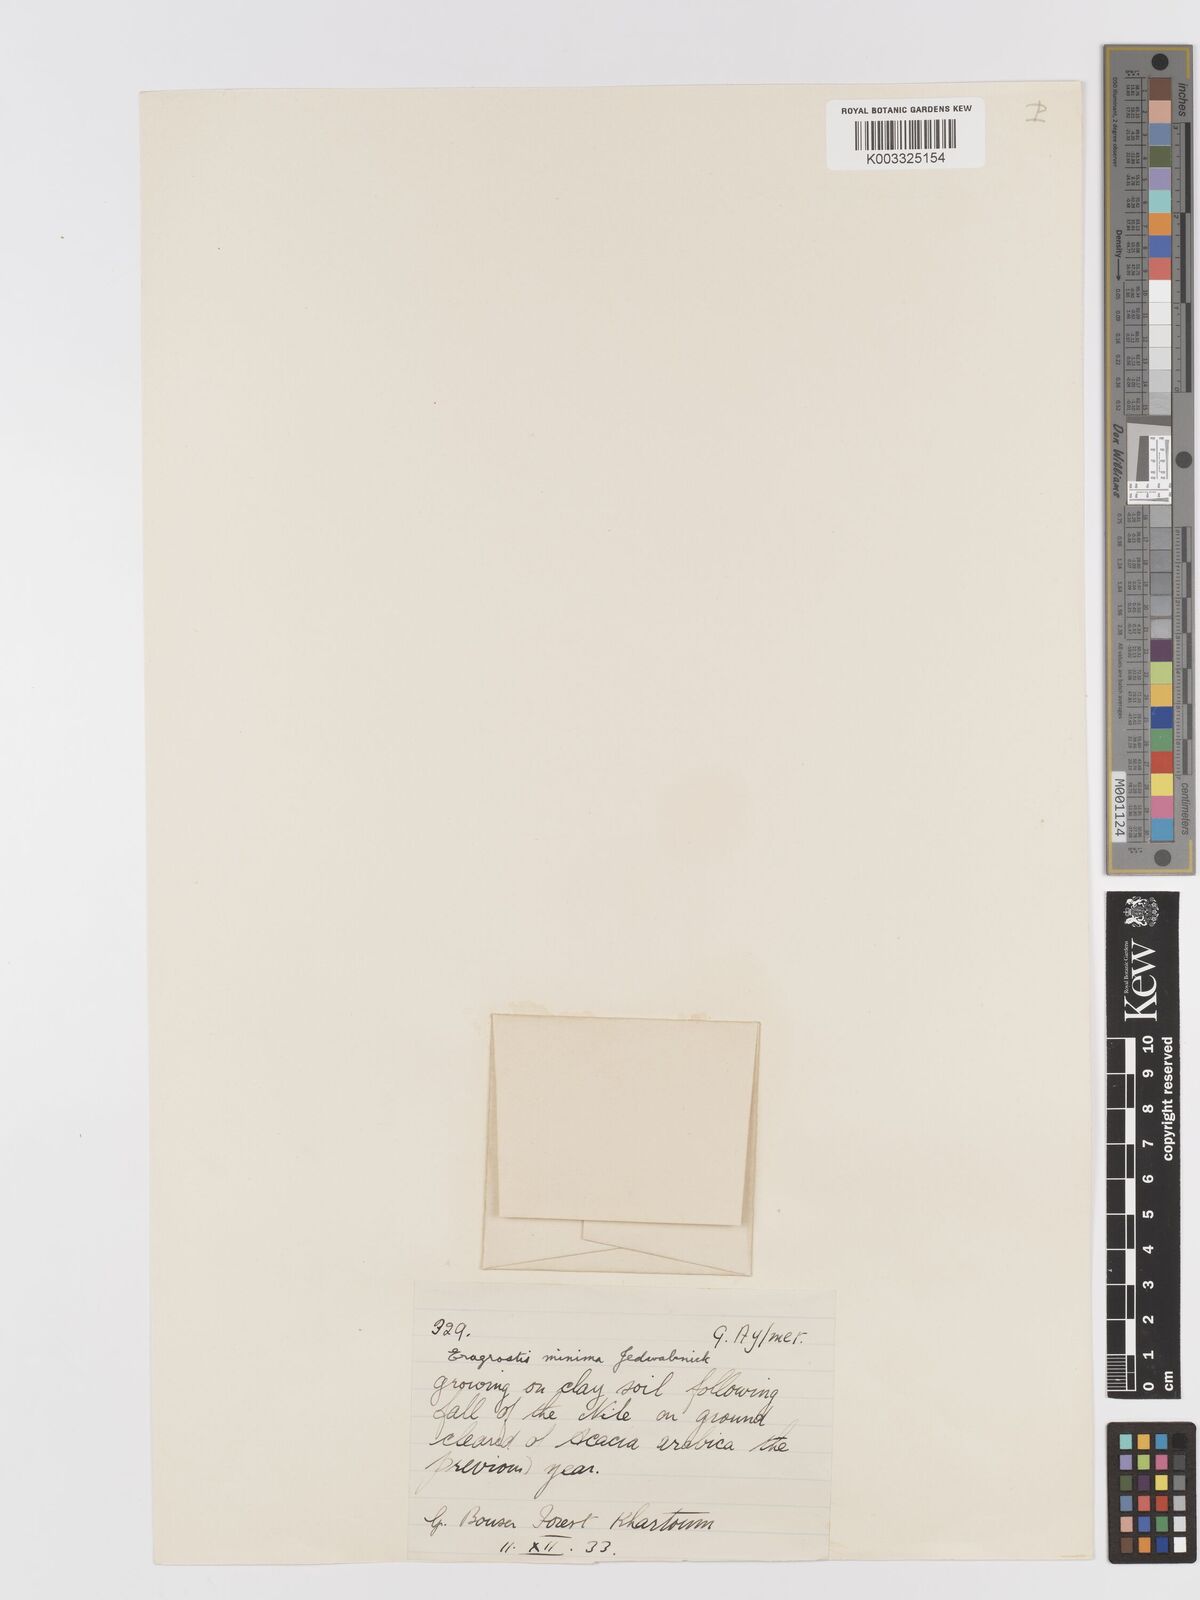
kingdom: Plantae
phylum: Tracheophyta
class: Liliopsida
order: Poales
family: Poaceae
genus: Eragrostis
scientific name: Eragrostis aegyptiaca
